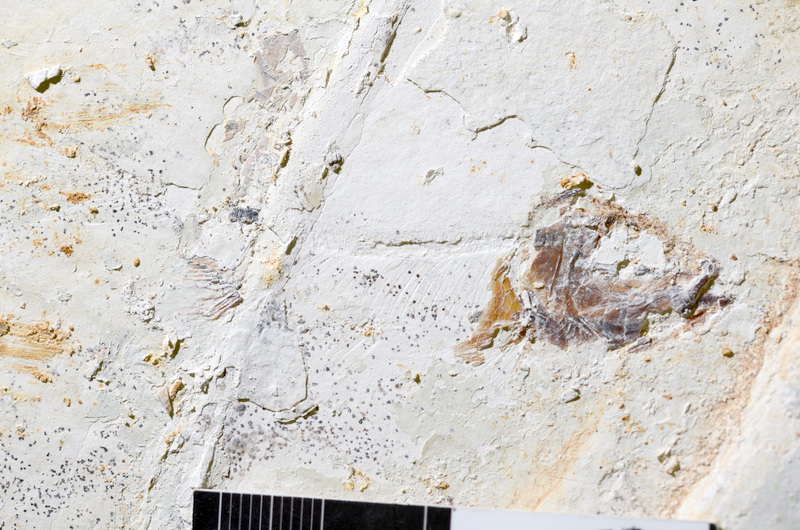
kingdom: Animalia
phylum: Chordata
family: Ascalaboidae
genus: Ebertichthys
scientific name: Ebertichthys ettlingensis
